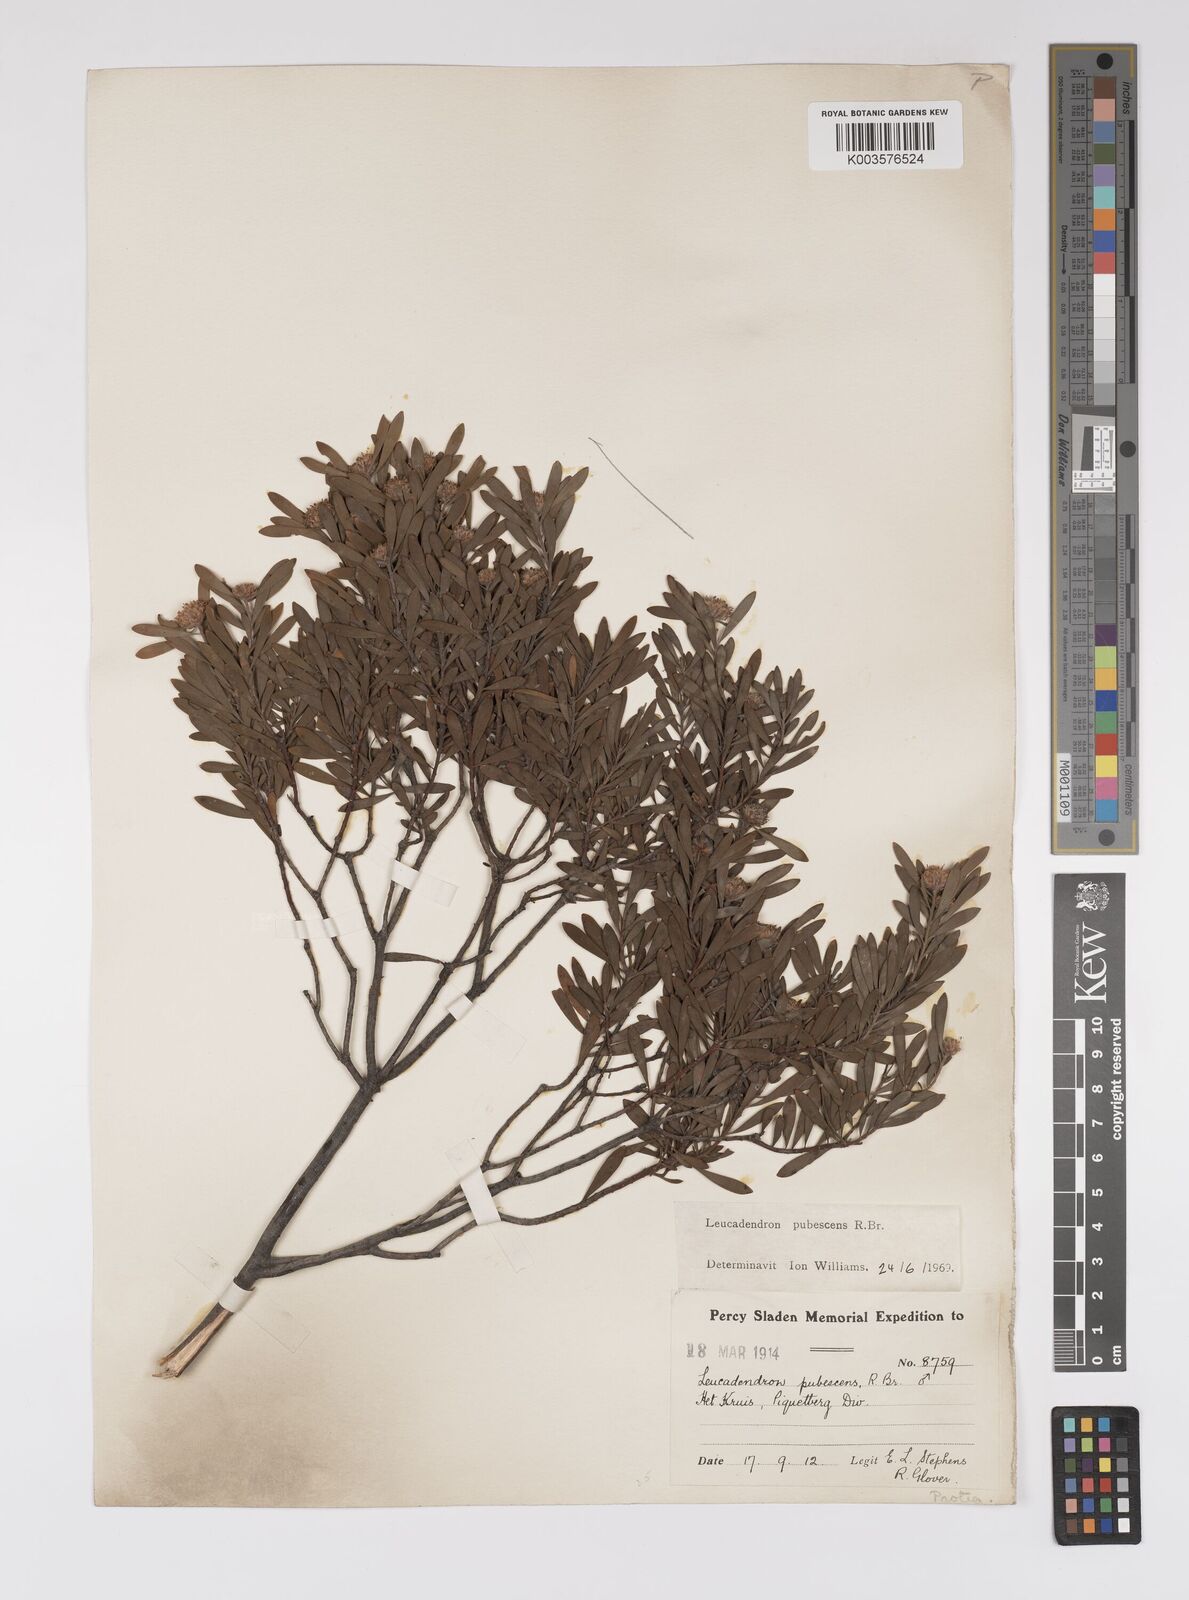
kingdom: Plantae
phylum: Tracheophyta
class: Magnoliopsida
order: Proteales
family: Proteaceae
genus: Leucadendron
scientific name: Leucadendron pubescens
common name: Grey conebush
